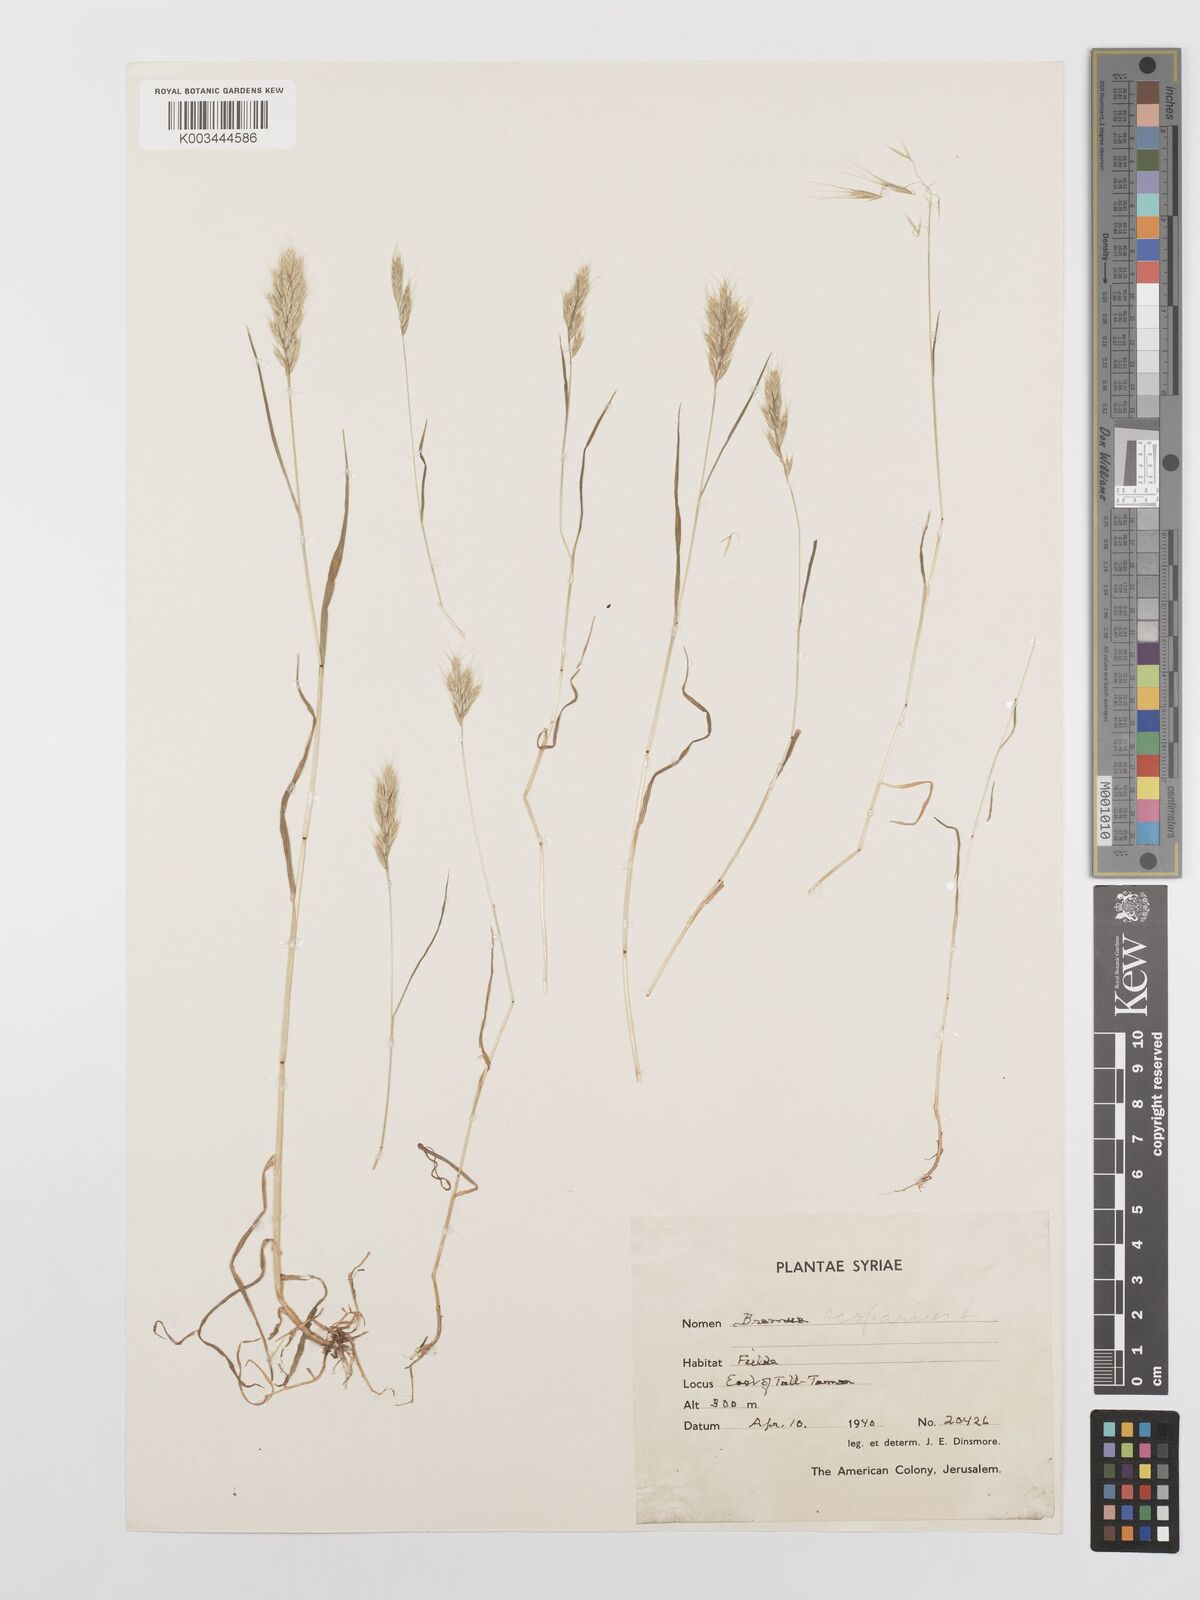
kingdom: Plantae
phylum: Tracheophyta
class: Liliopsida
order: Poales
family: Poaceae
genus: Bromus
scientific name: Bromus scoparius
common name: Broom brome
